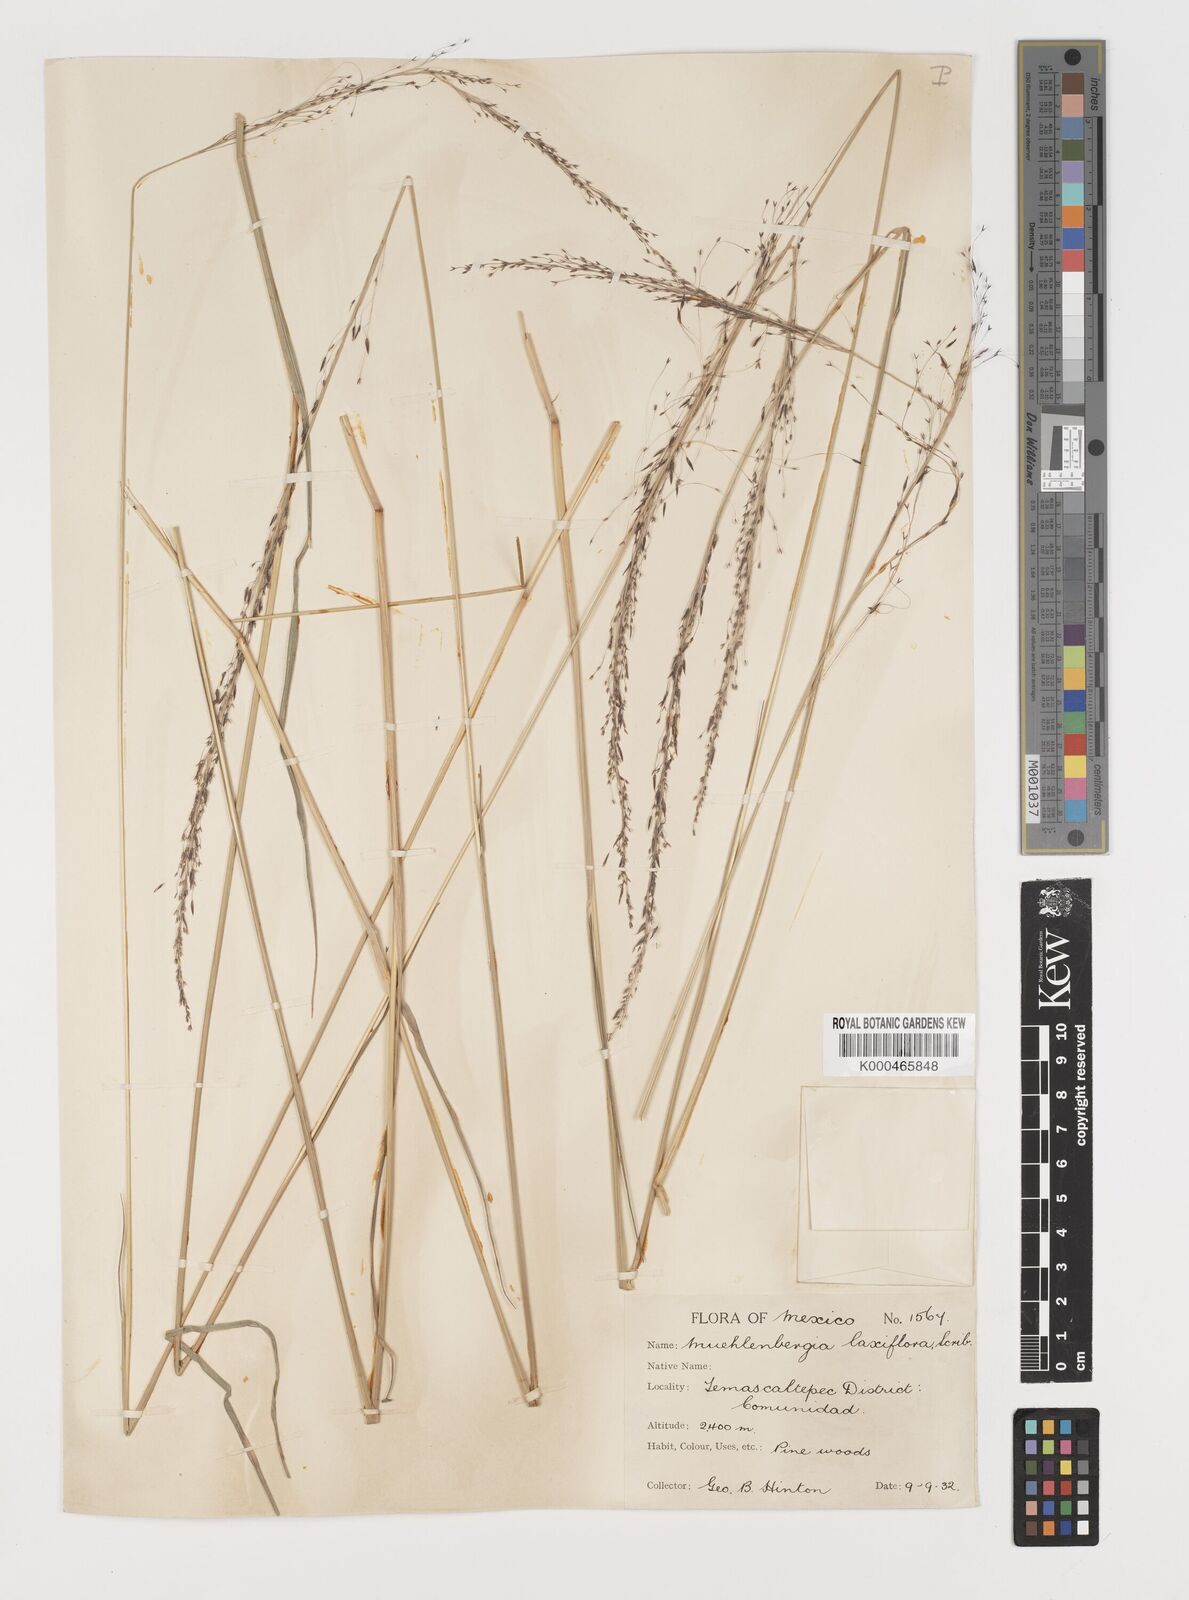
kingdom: Plantae
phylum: Tracheophyta
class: Liliopsida
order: Poales
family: Poaceae
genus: Muhlenbergia
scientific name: Muhlenbergia rigida
